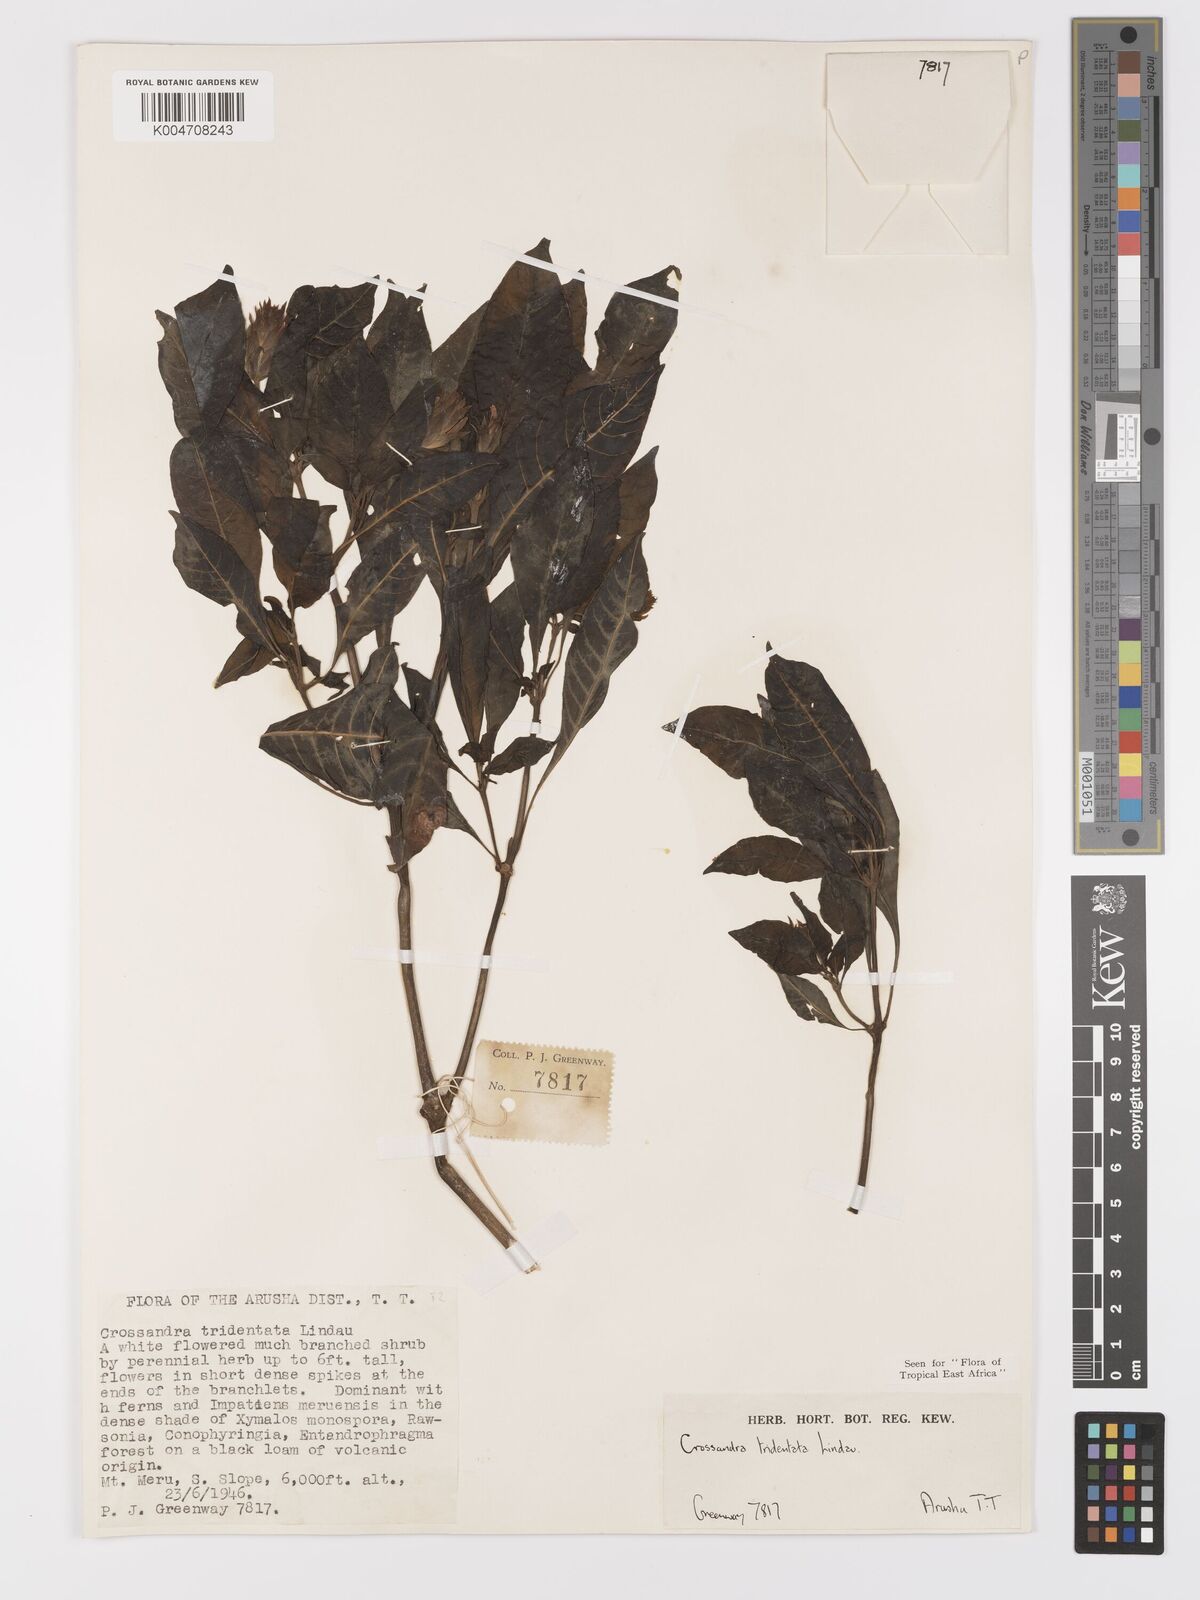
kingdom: Plantae
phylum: Tracheophyta
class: Magnoliopsida
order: Lamiales
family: Acanthaceae
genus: Crossandra
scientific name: Crossandra tridentata
